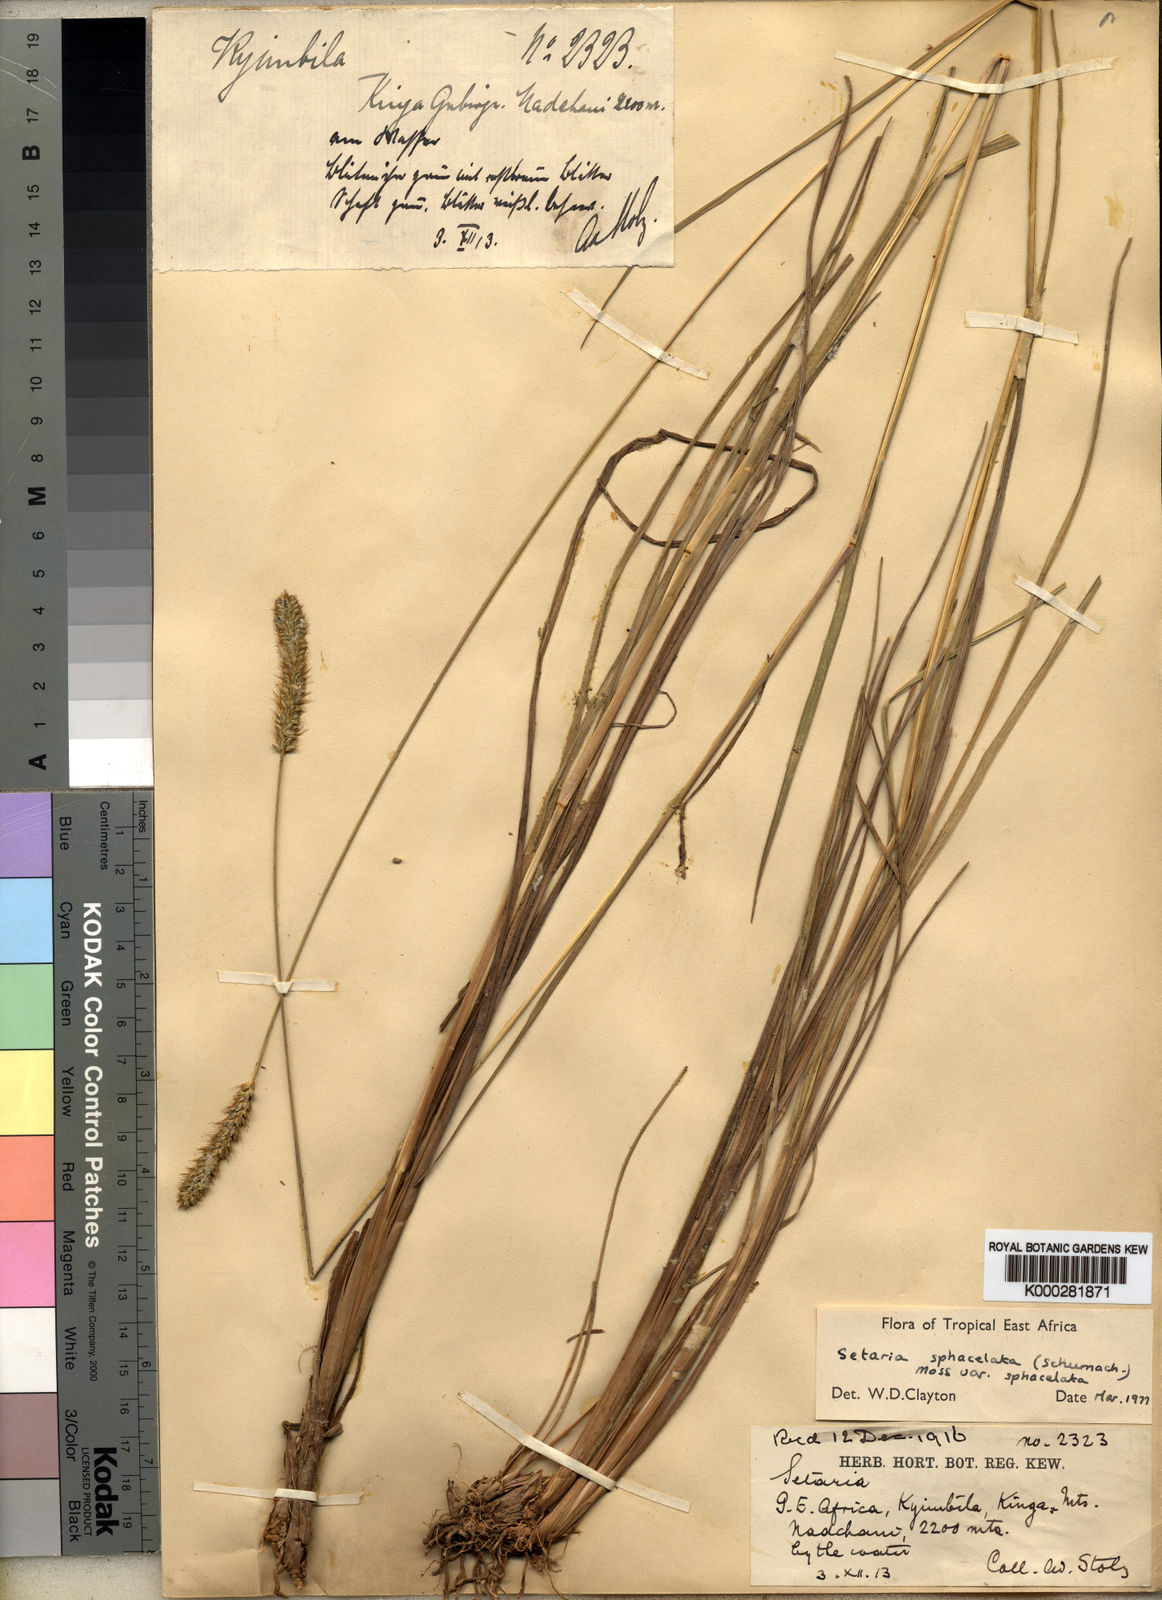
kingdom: Plantae
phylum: Tracheophyta
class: Liliopsida
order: Poales
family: Poaceae
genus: Setaria
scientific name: Setaria sphacelata
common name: African bristlegrass
